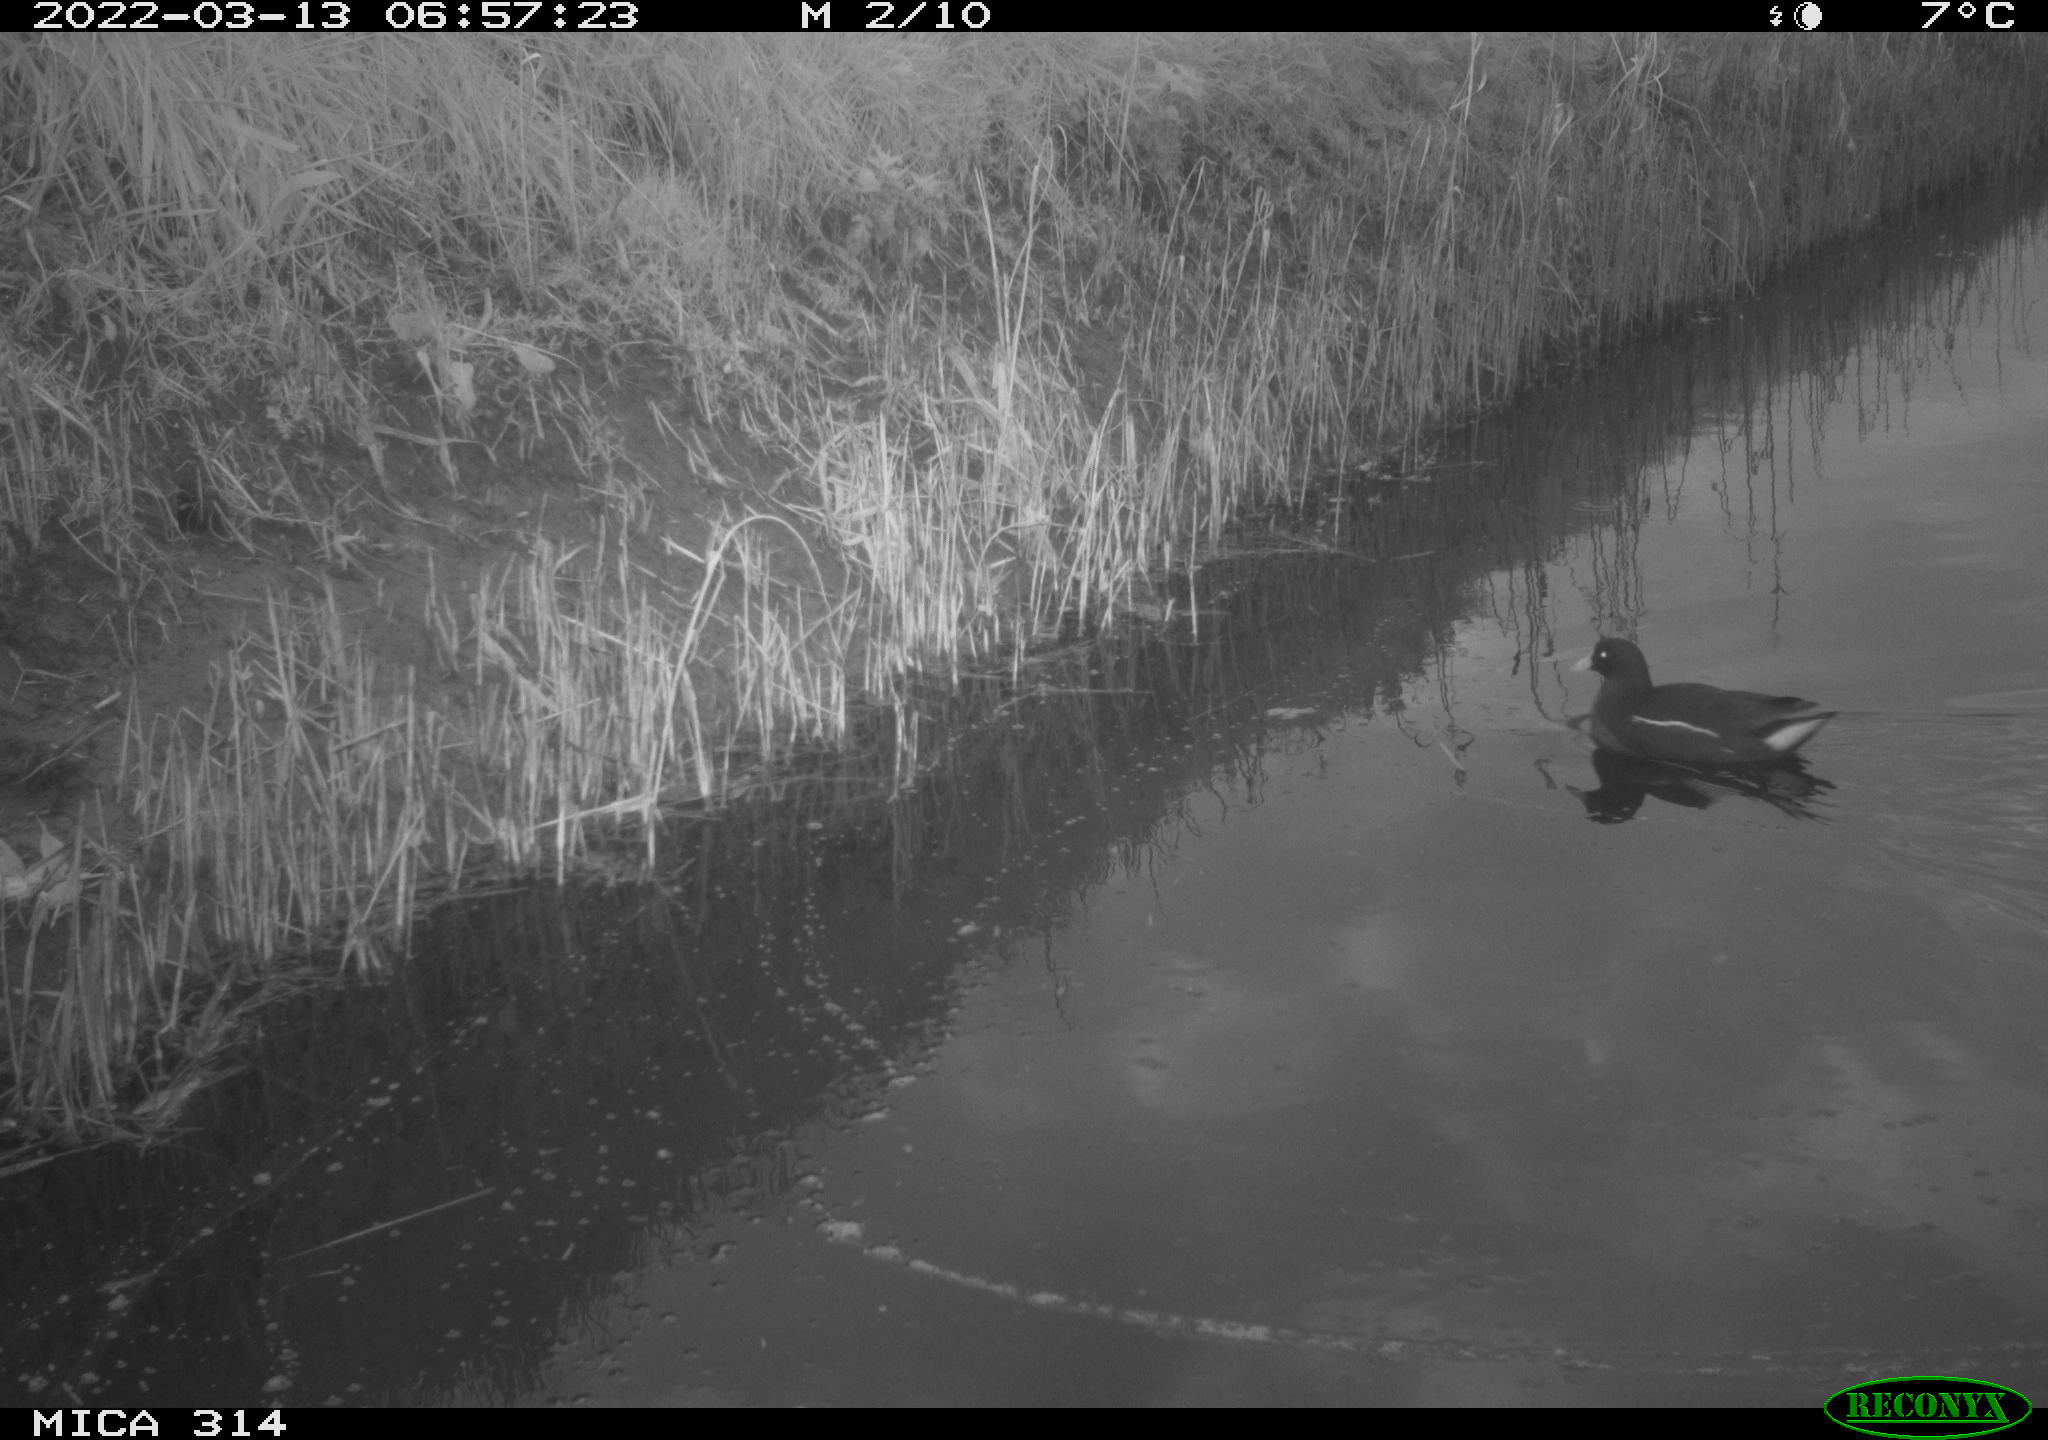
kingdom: Animalia
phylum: Chordata
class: Aves
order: Gruiformes
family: Rallidae
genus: Gallinula
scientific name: Gallinula chloropus
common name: Common moorhen
